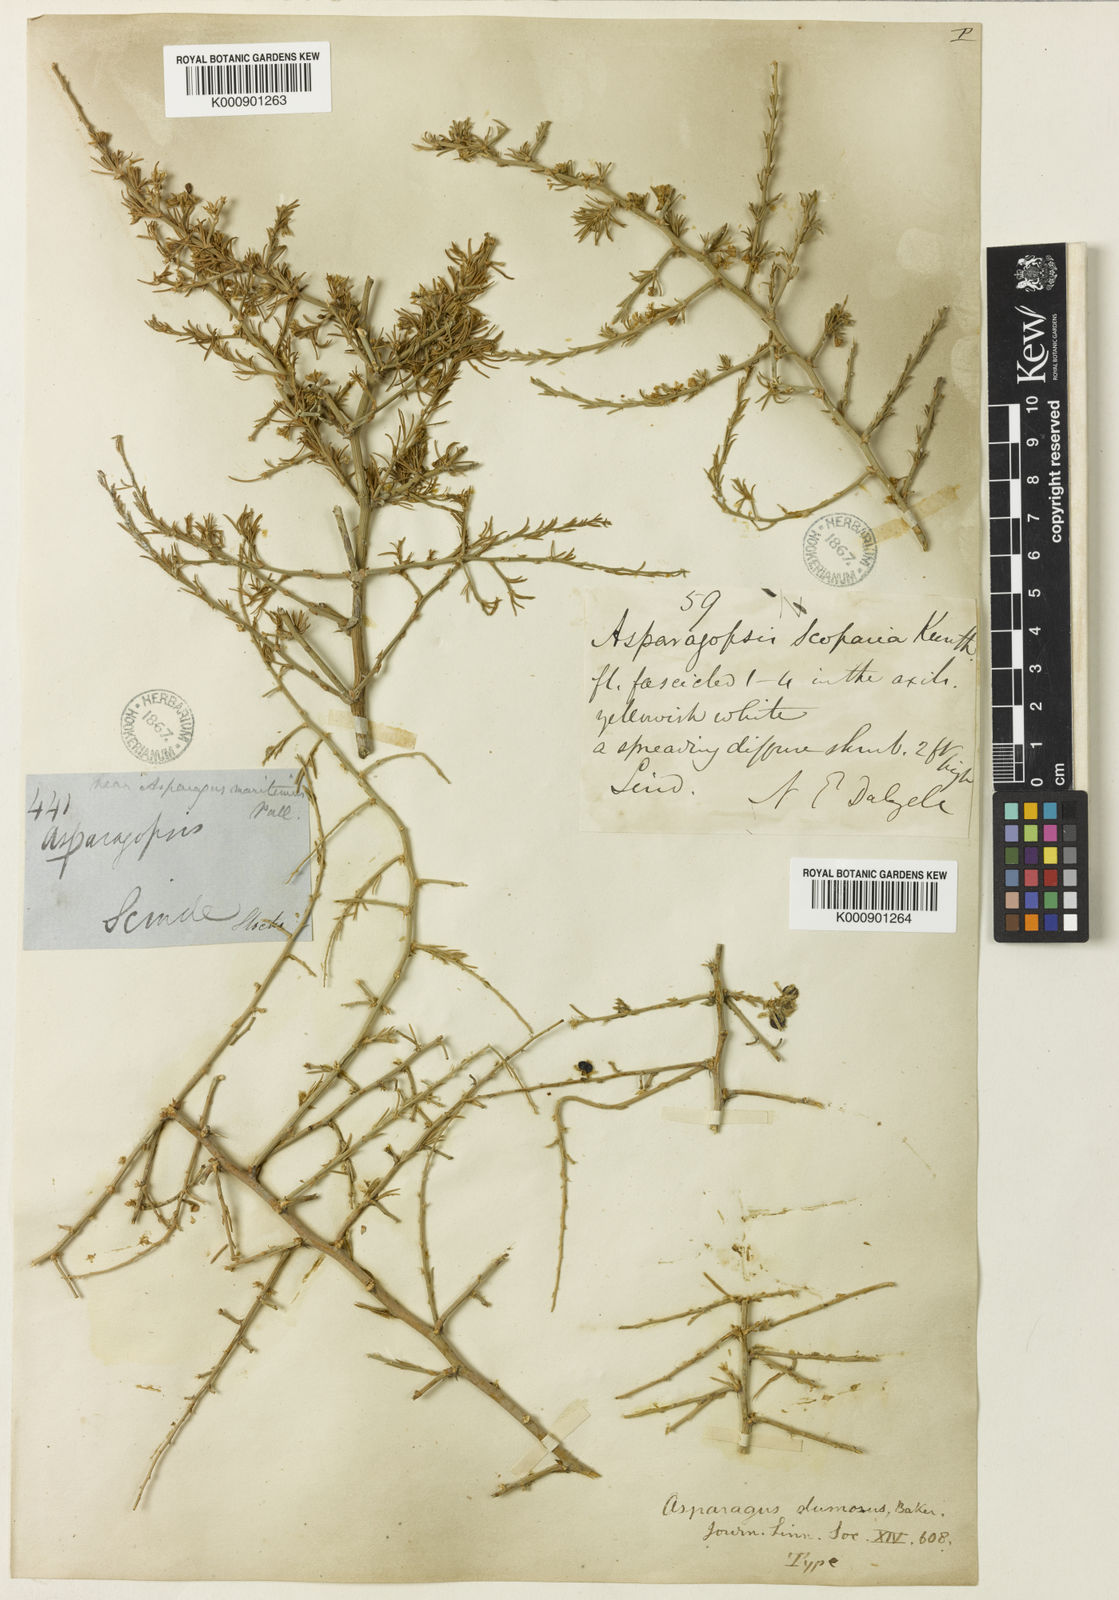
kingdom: Plantae
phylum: Tracheophyta
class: Liliopsida
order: Asparagales
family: Asparagaceae
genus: Asparagus
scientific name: Asparagus dumosus
